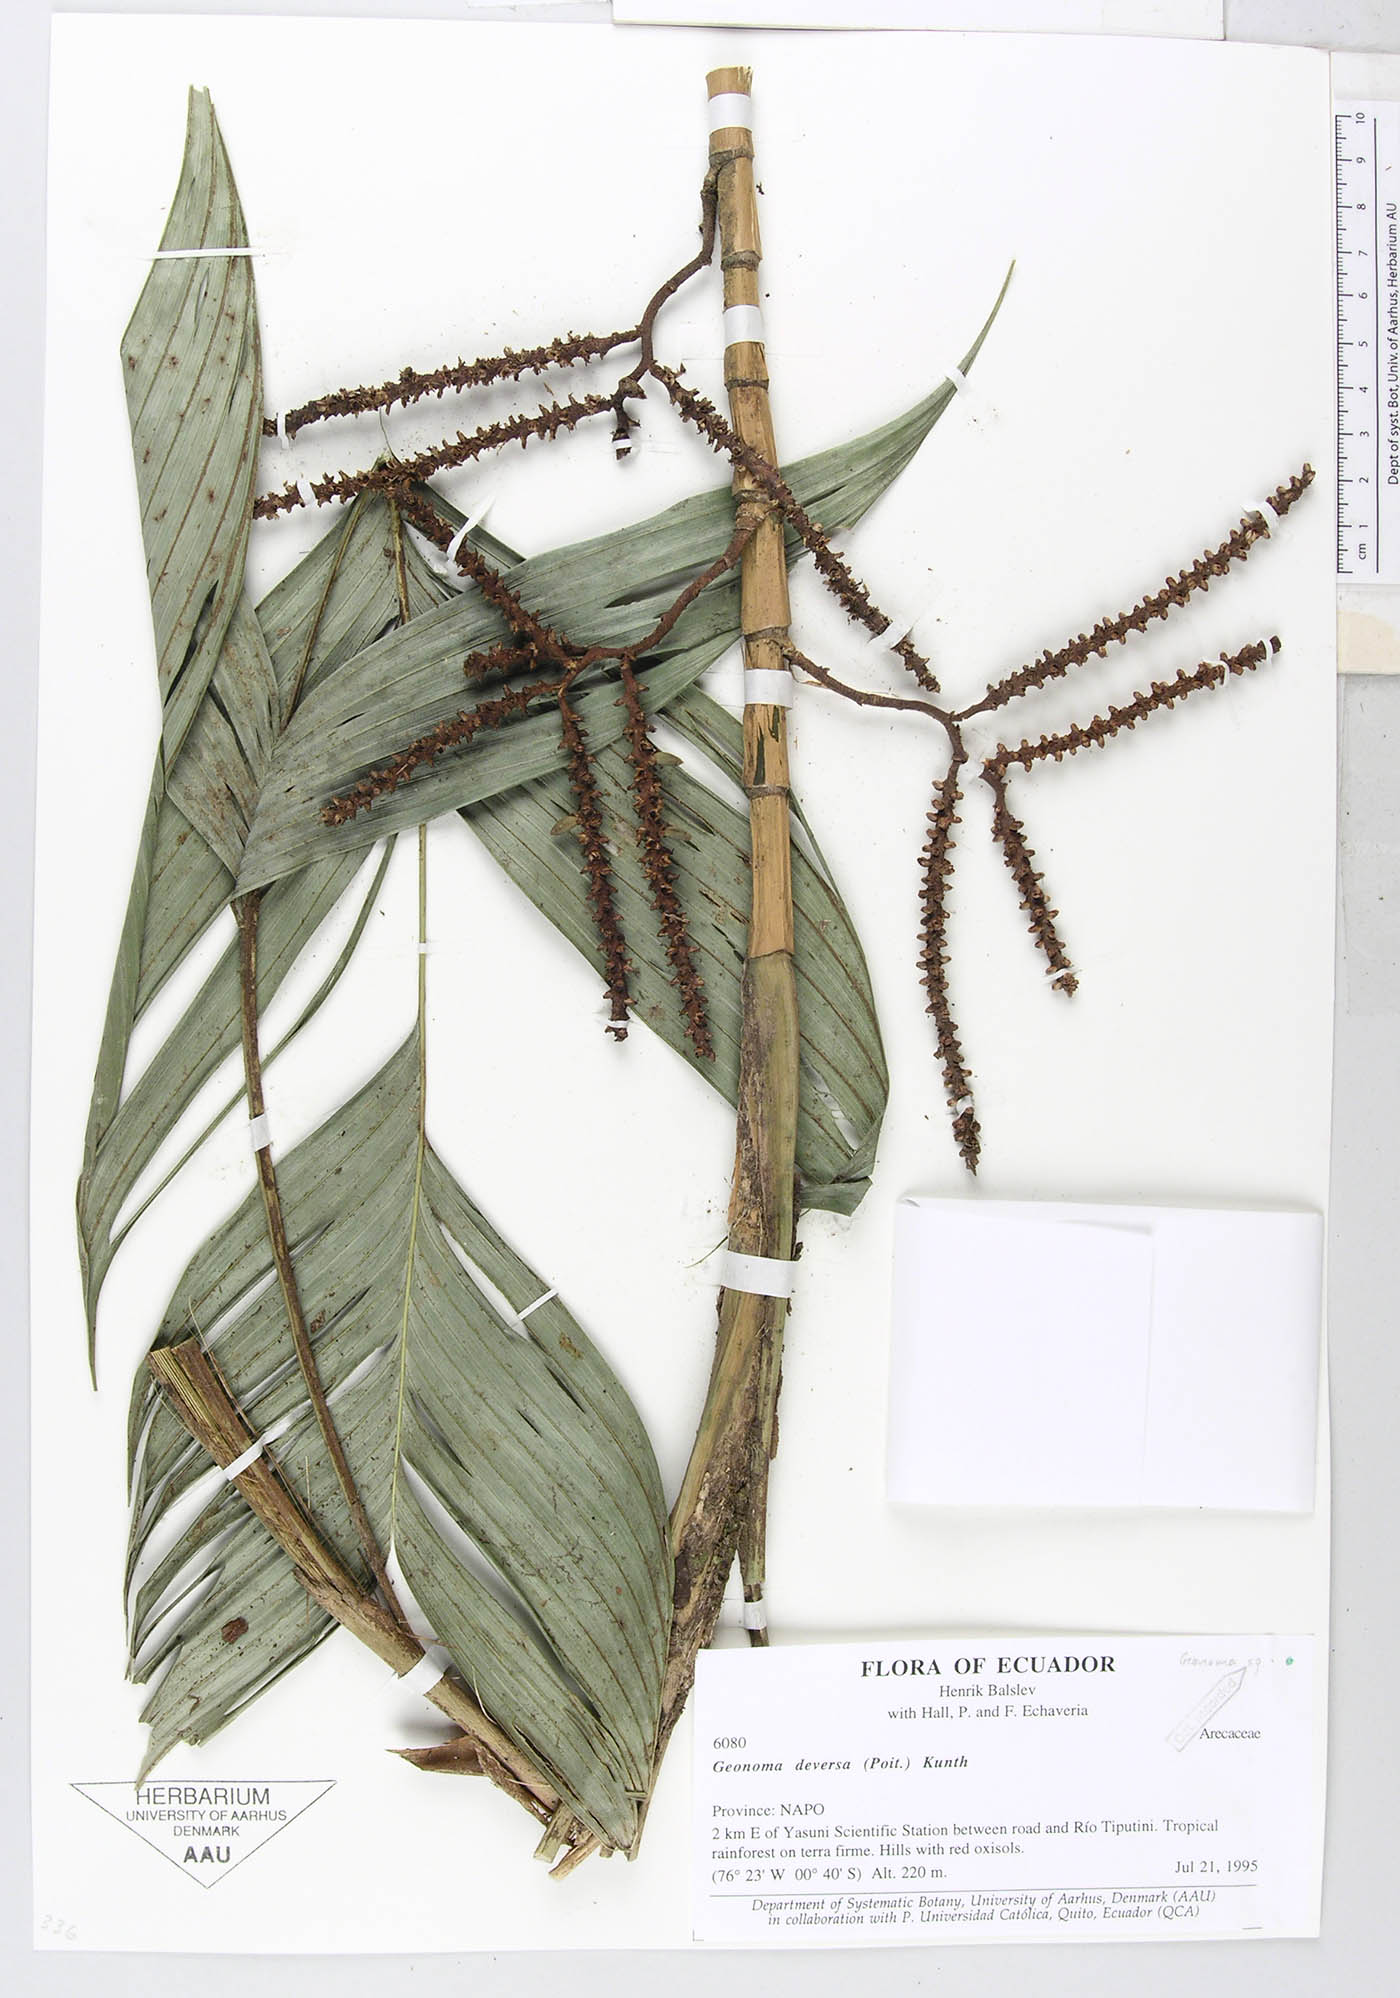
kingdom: Plantae
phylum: Tracheophyta
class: Liliopsida
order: Arecales
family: Arecaceae
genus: Geonoma
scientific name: Geonoma stricta
